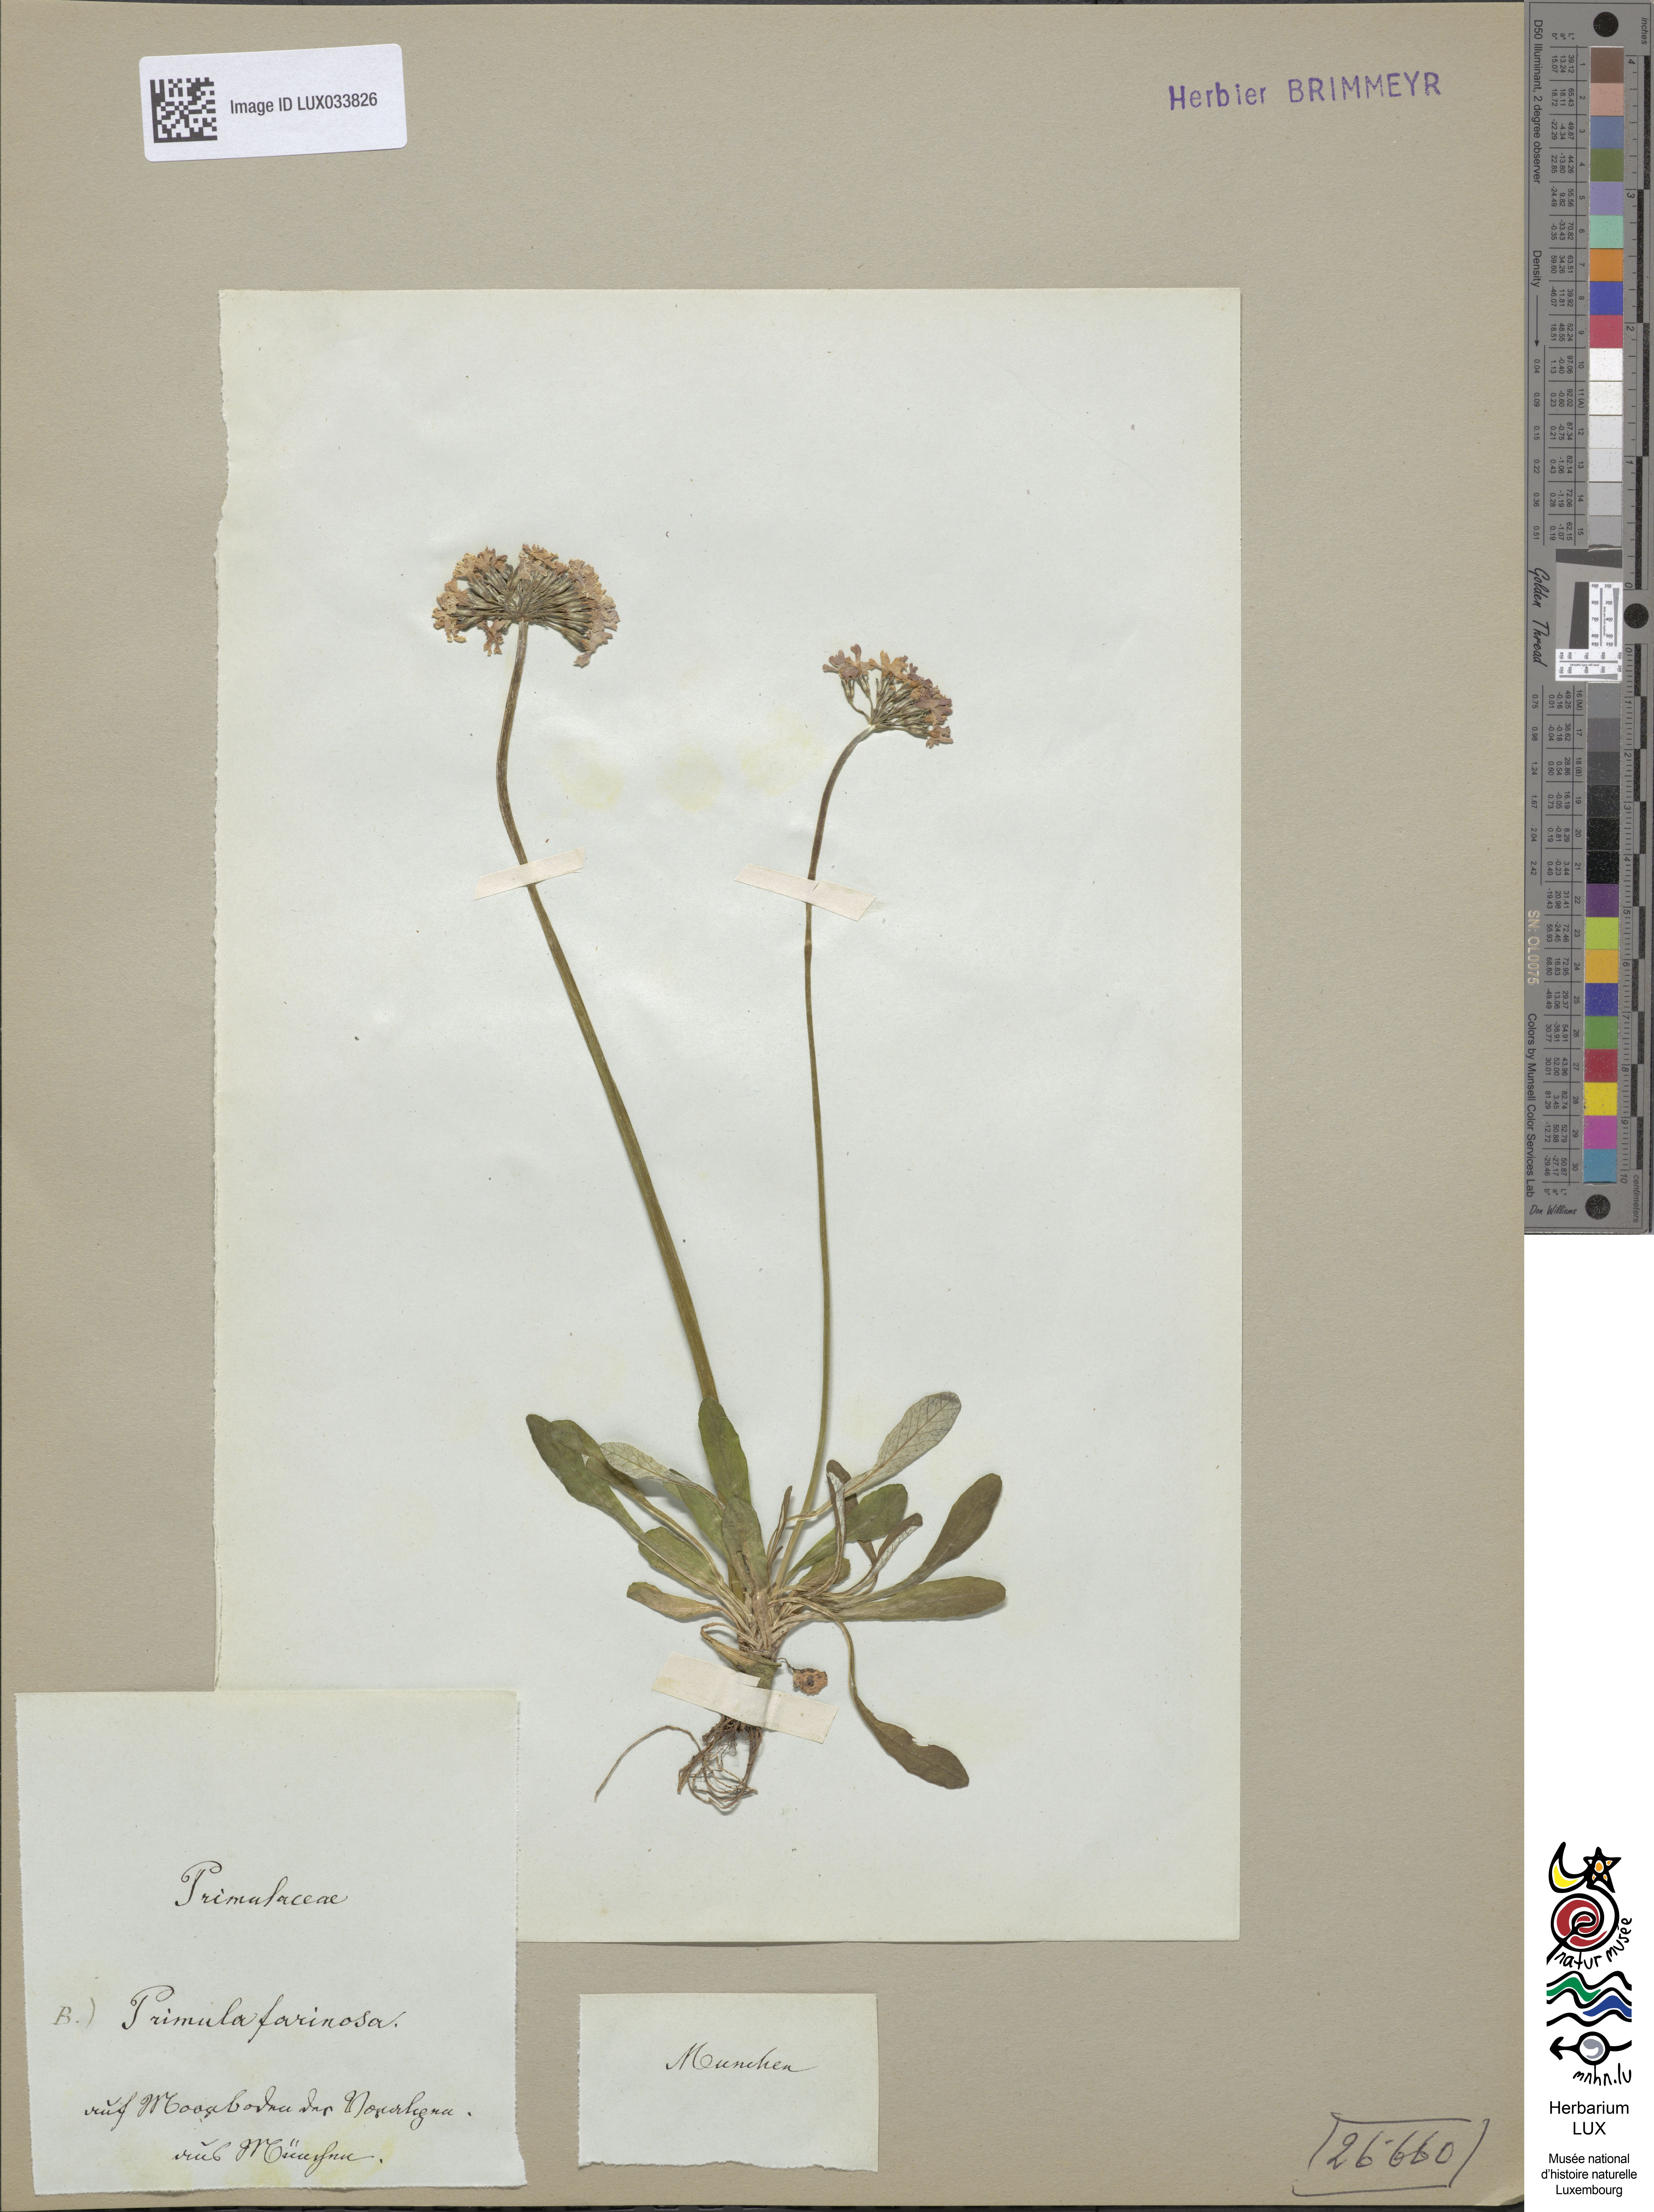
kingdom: Plantae
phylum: Tracheophyta
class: Magnoliopsida
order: Ericales
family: Primulaceae
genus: Primula
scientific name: Primula farinosa
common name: Bird's-eye primrose
